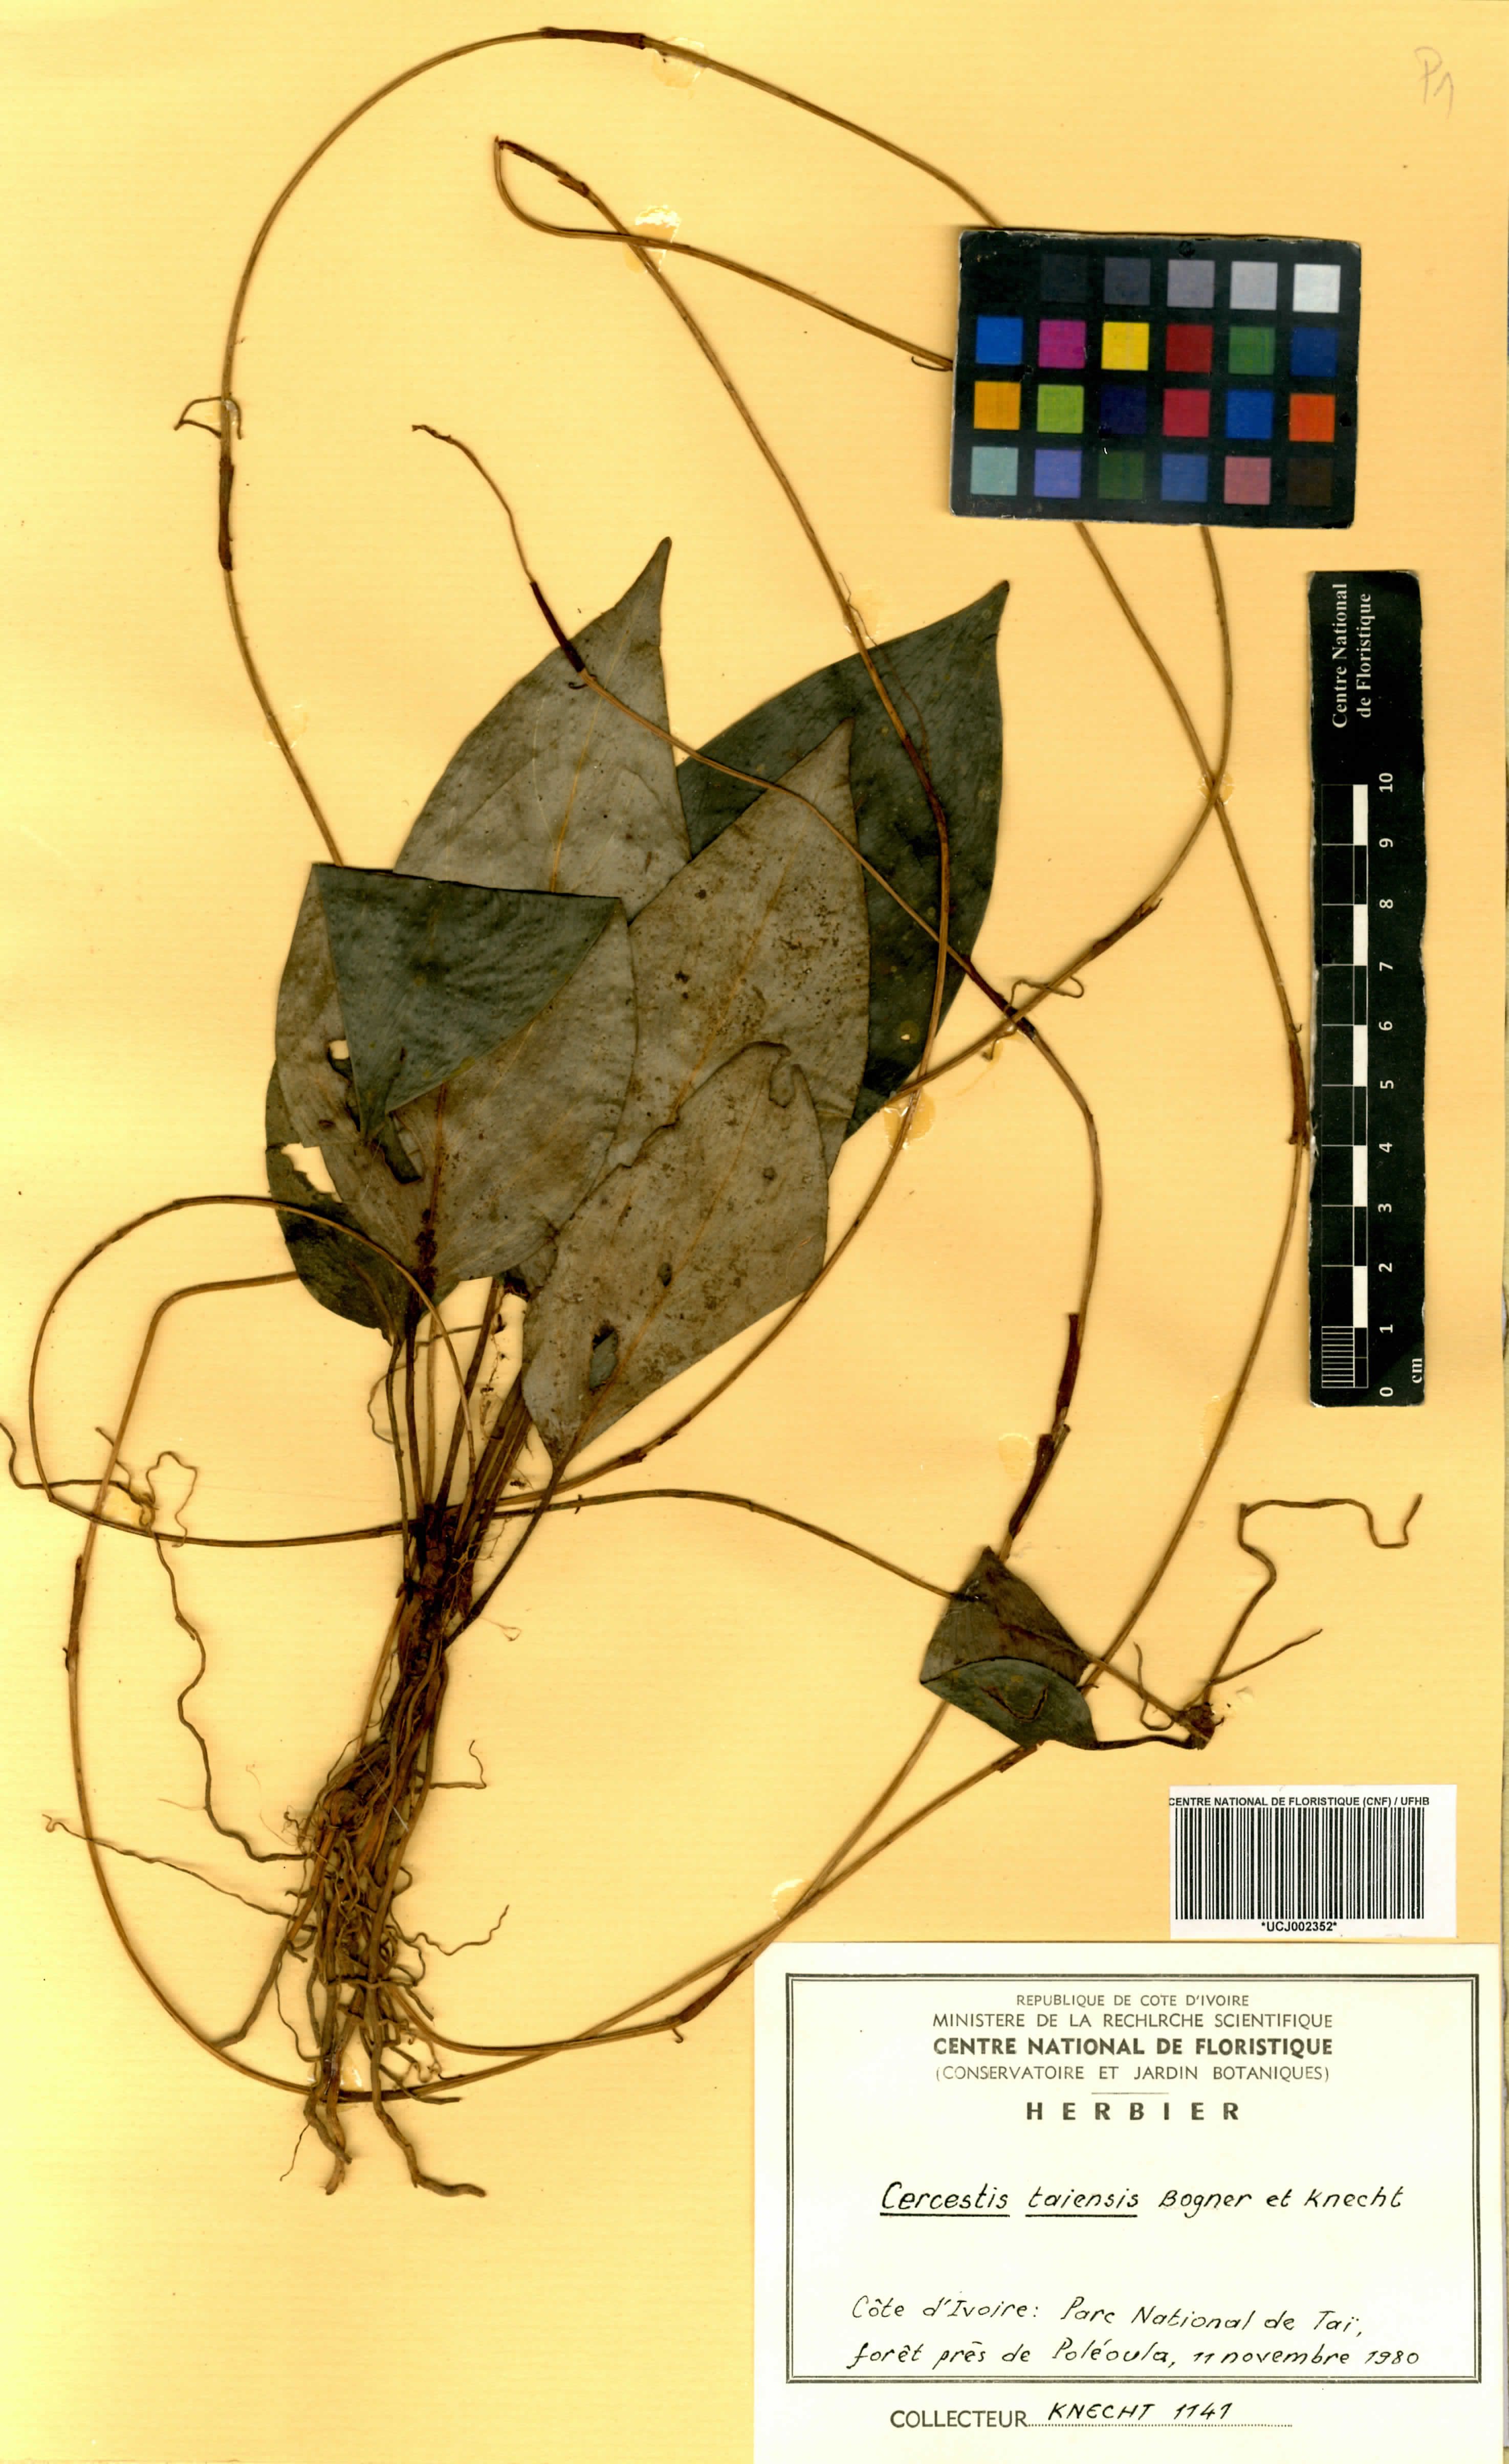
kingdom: Plantae
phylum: Tracheophyta
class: Liliopsida
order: Alismatales
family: Araceae
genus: Cercestis
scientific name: Cercestis taiensis
